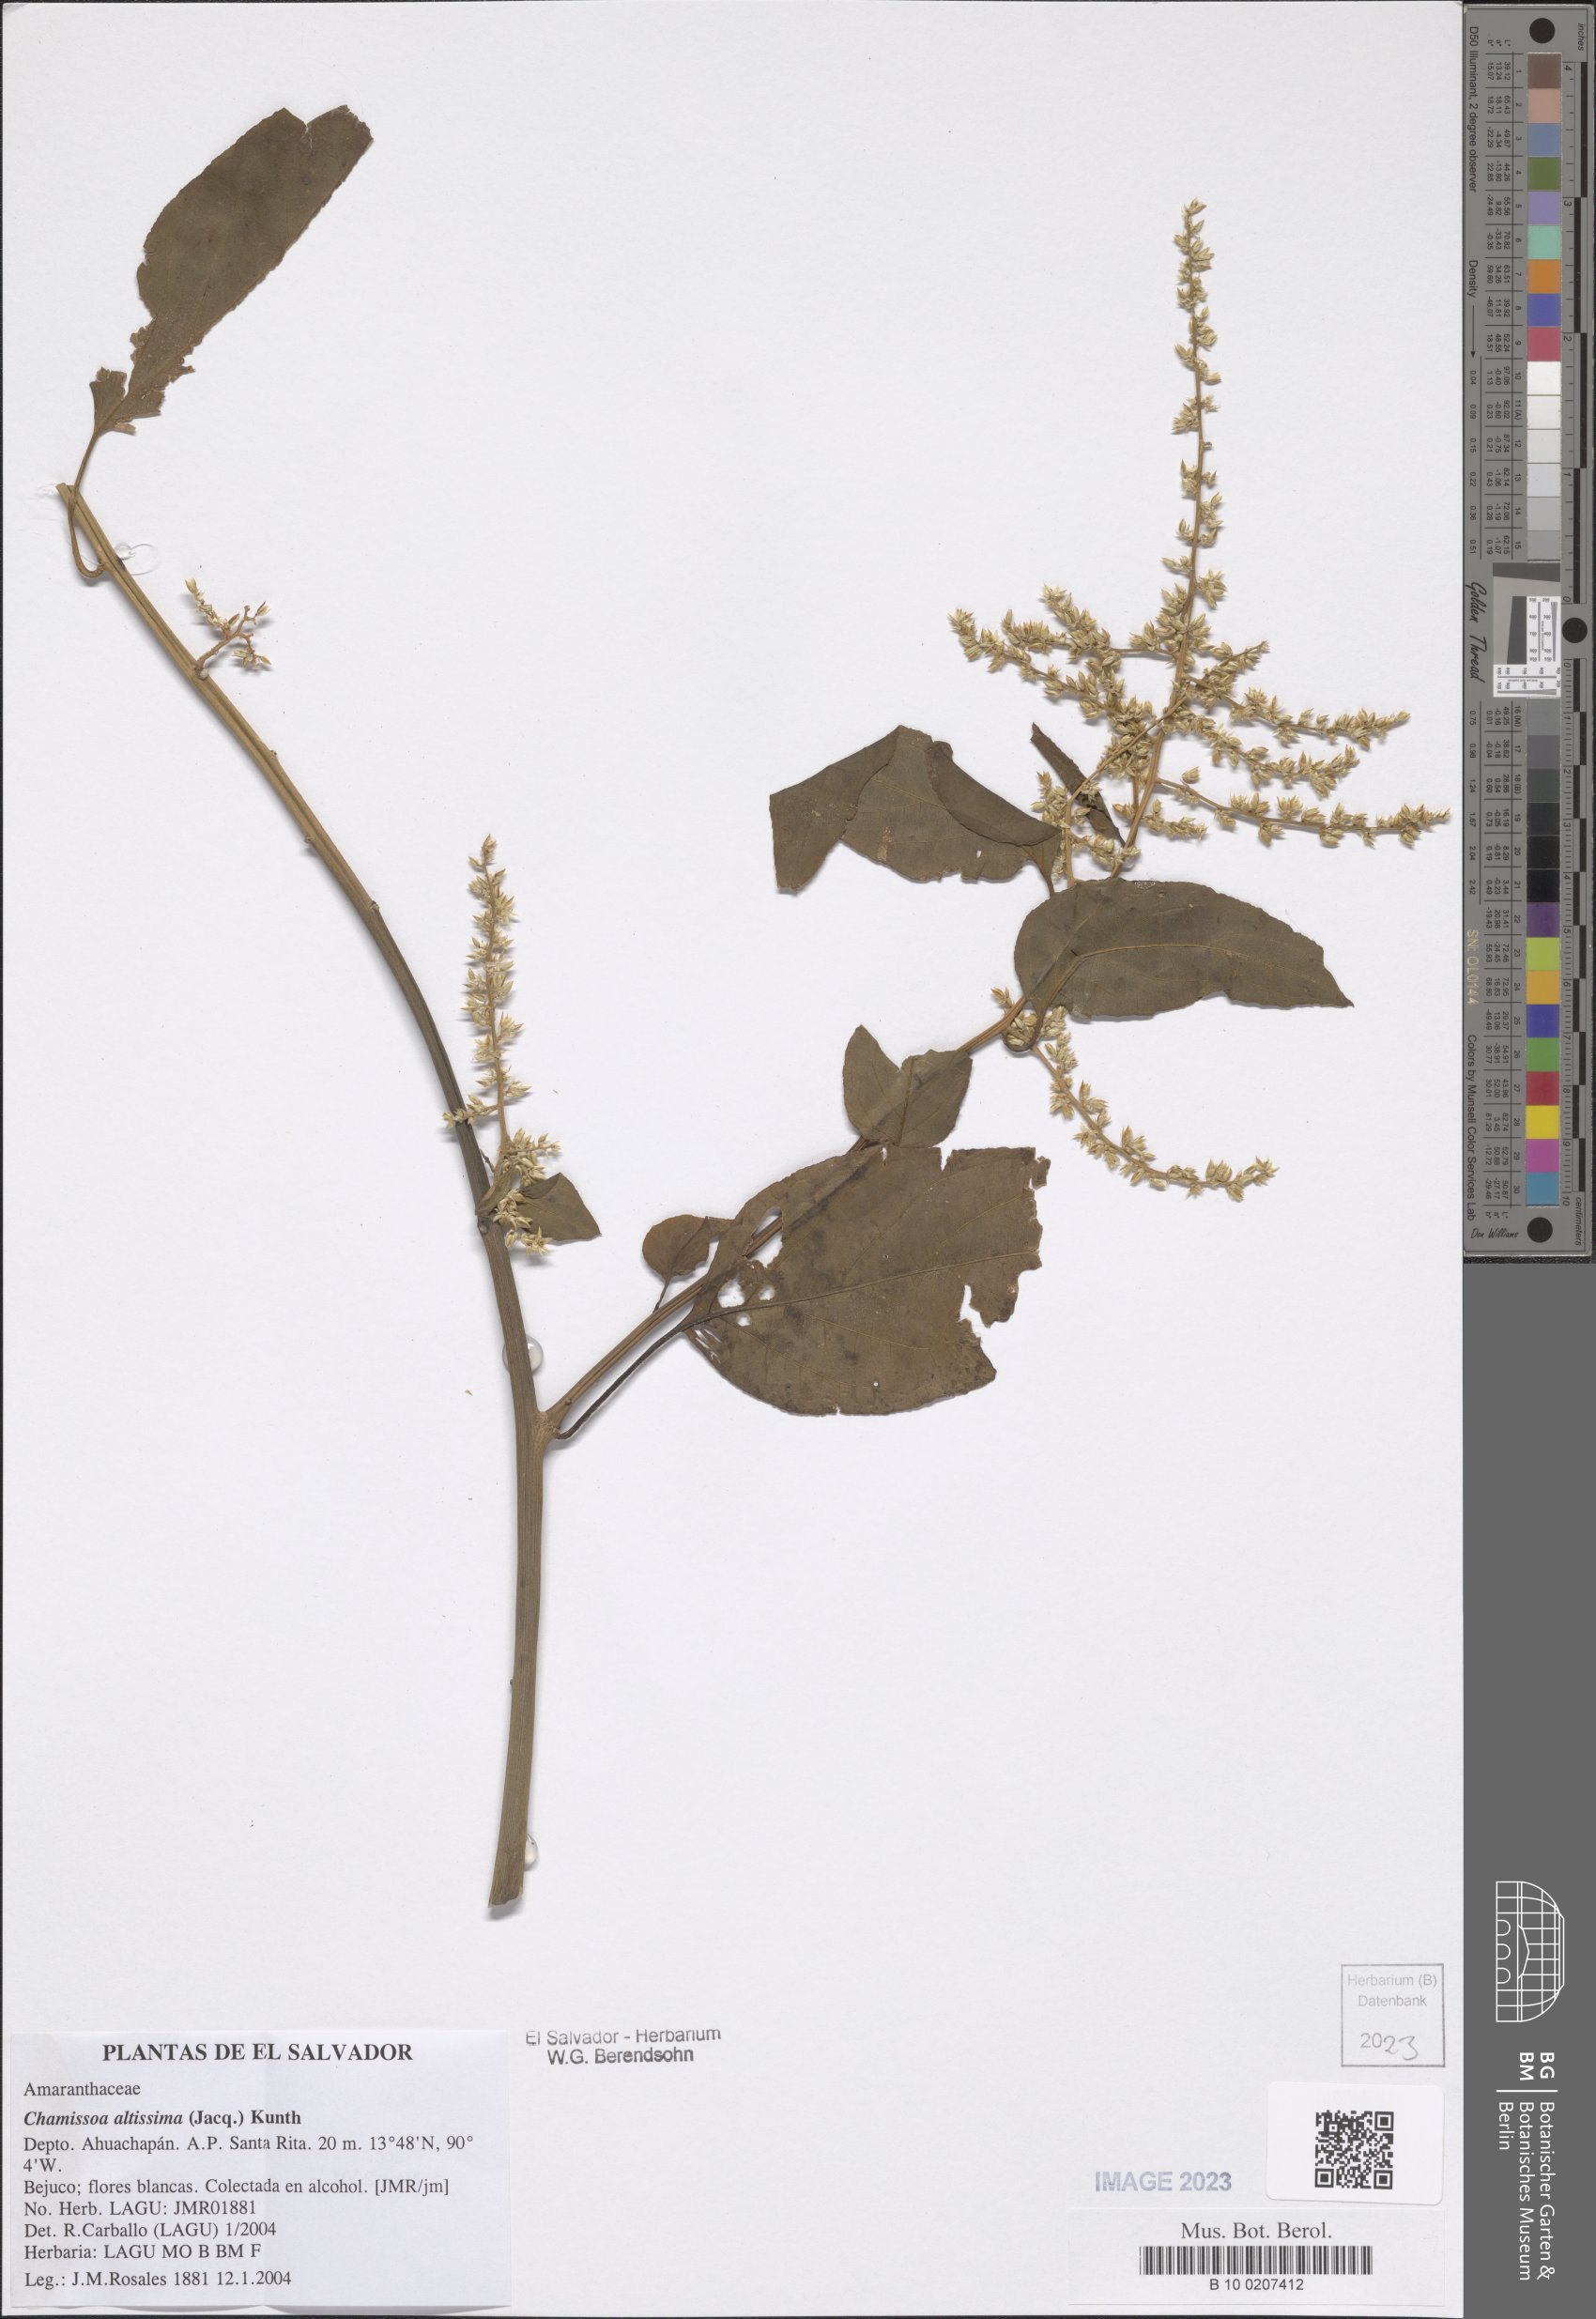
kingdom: Plantae
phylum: Tracheophyta
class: Magnoliopsida
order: Caryophyllales
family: Amaranthaceae
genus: Chamissoa
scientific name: Chamissoa altissima
